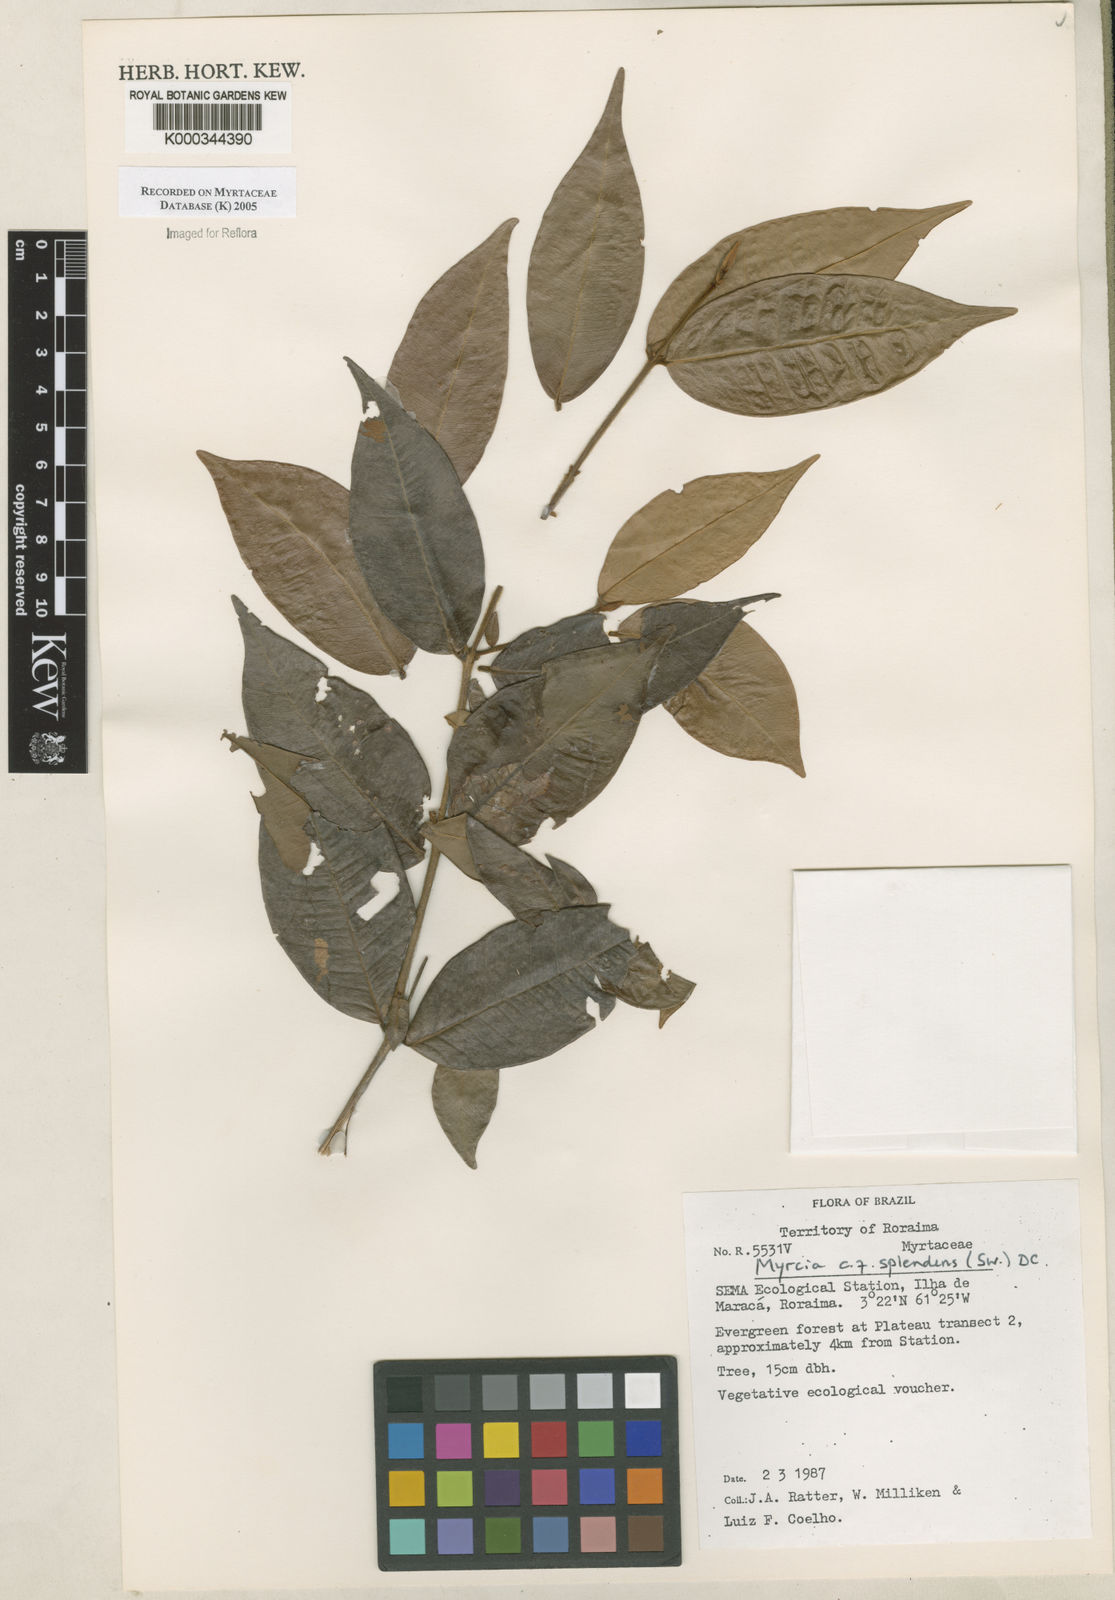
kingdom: Plantae
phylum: Tracheophyta
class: Magnoliopsida
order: Myrtales
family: Myrtaceae
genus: Myrcia
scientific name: Myrcia splendens
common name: Surinam cherry
